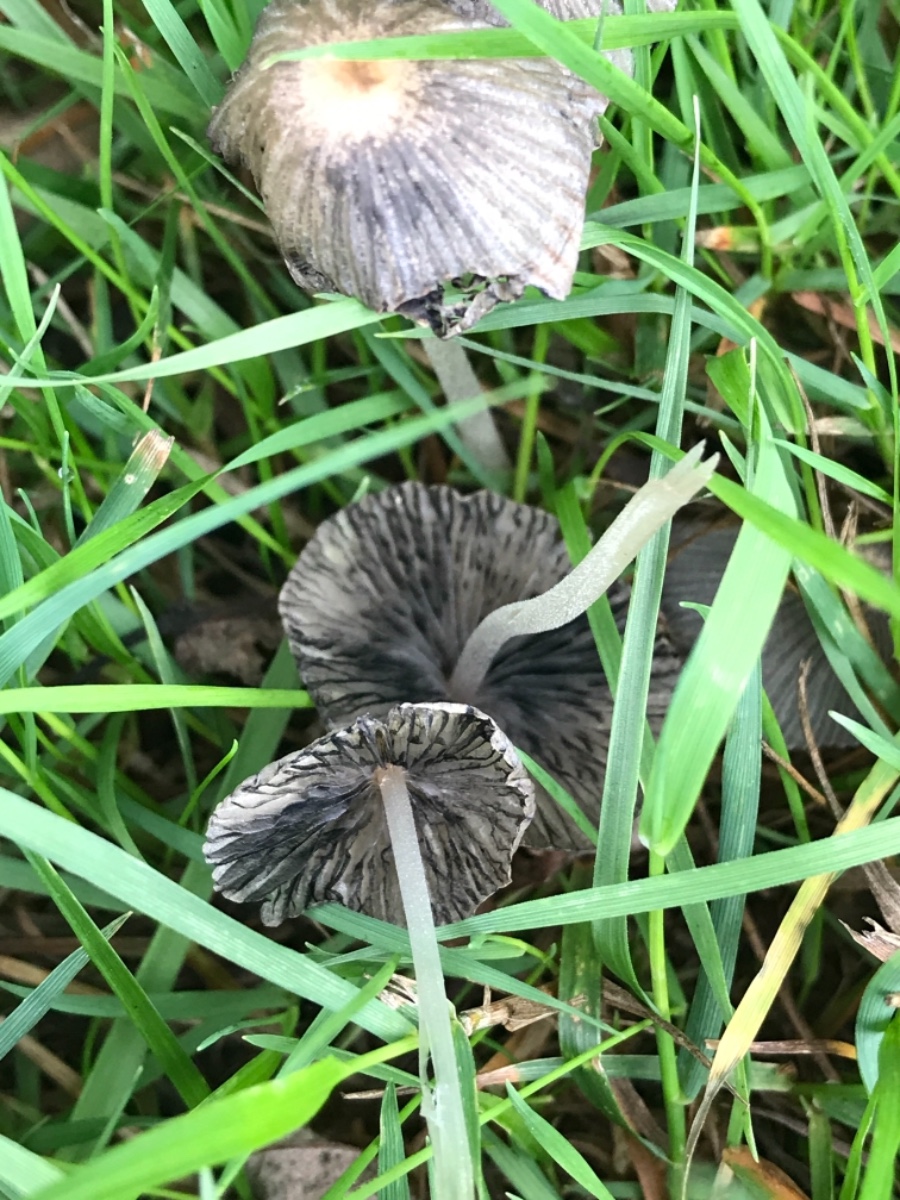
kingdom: Fungi
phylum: Basidiomycota
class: Agaricomycetes
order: Agaricales
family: Psathyrellaceae
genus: Parasola
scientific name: Parasola
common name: hjulhat
